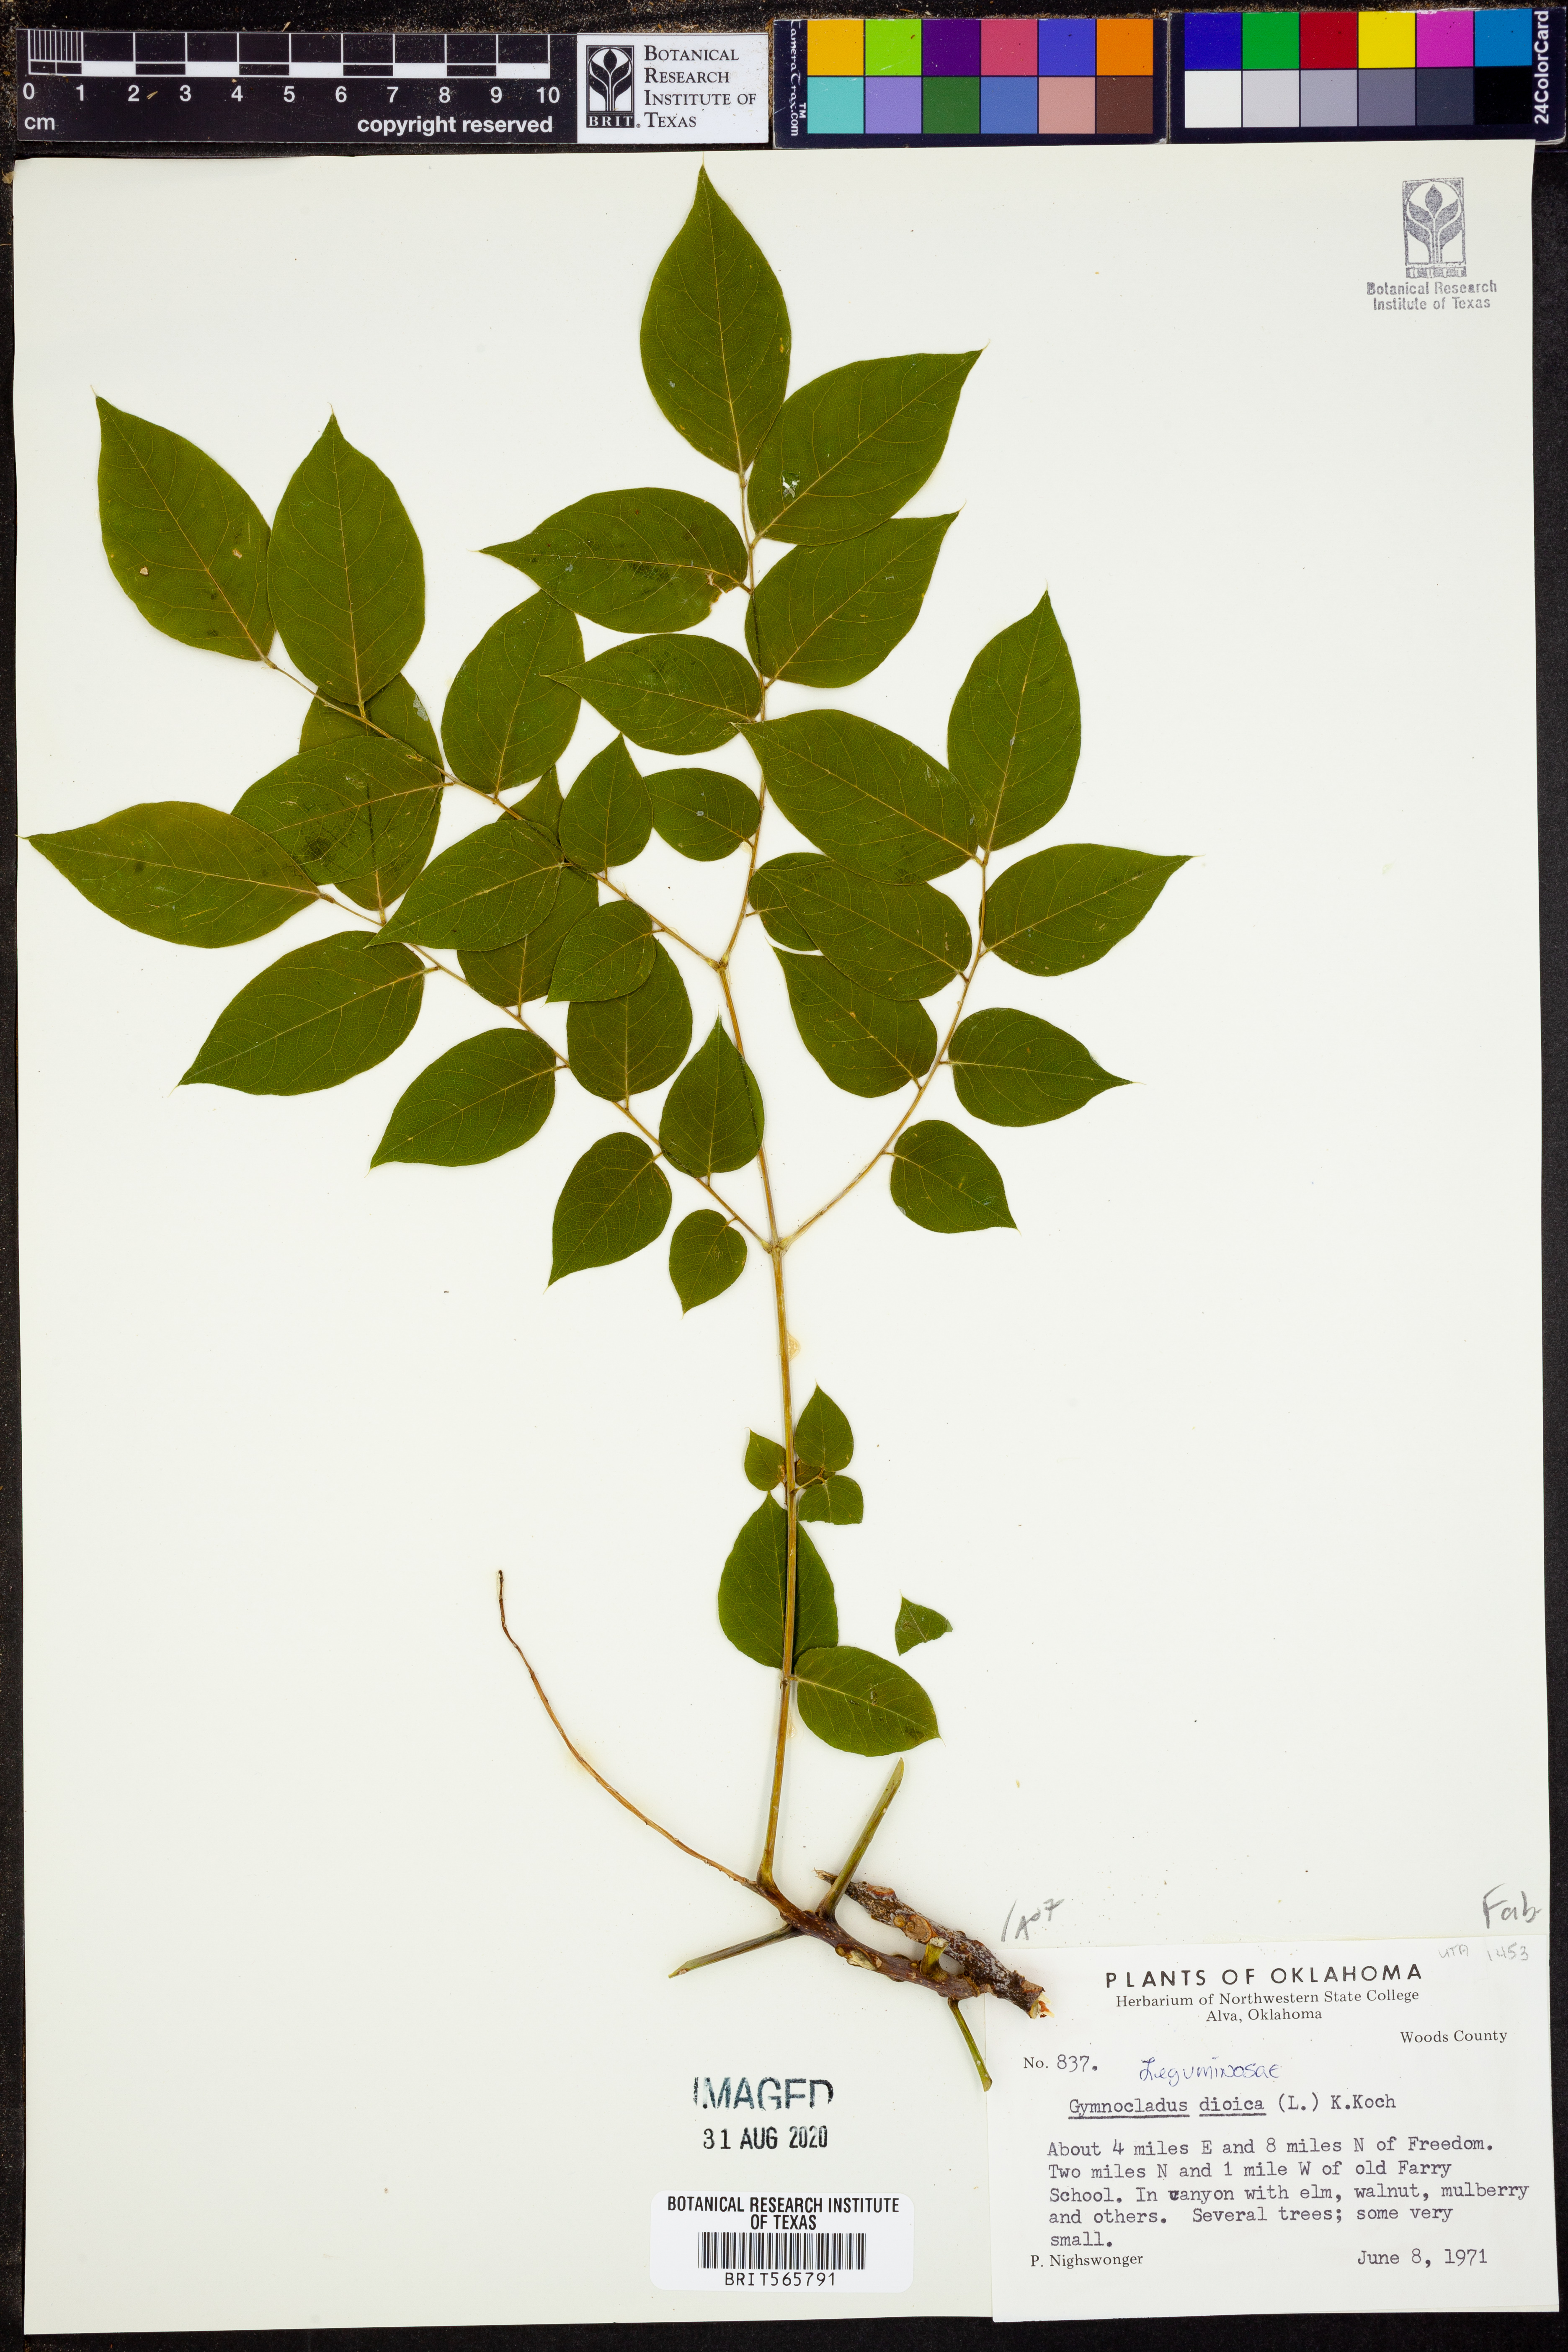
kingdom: Plantae
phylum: Tracheophyta
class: Magnoliopsida
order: Fabales
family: Fabaceae
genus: Gymnocladus
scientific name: Gymnocladus dioicus
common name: Kentucky coffee-tree
